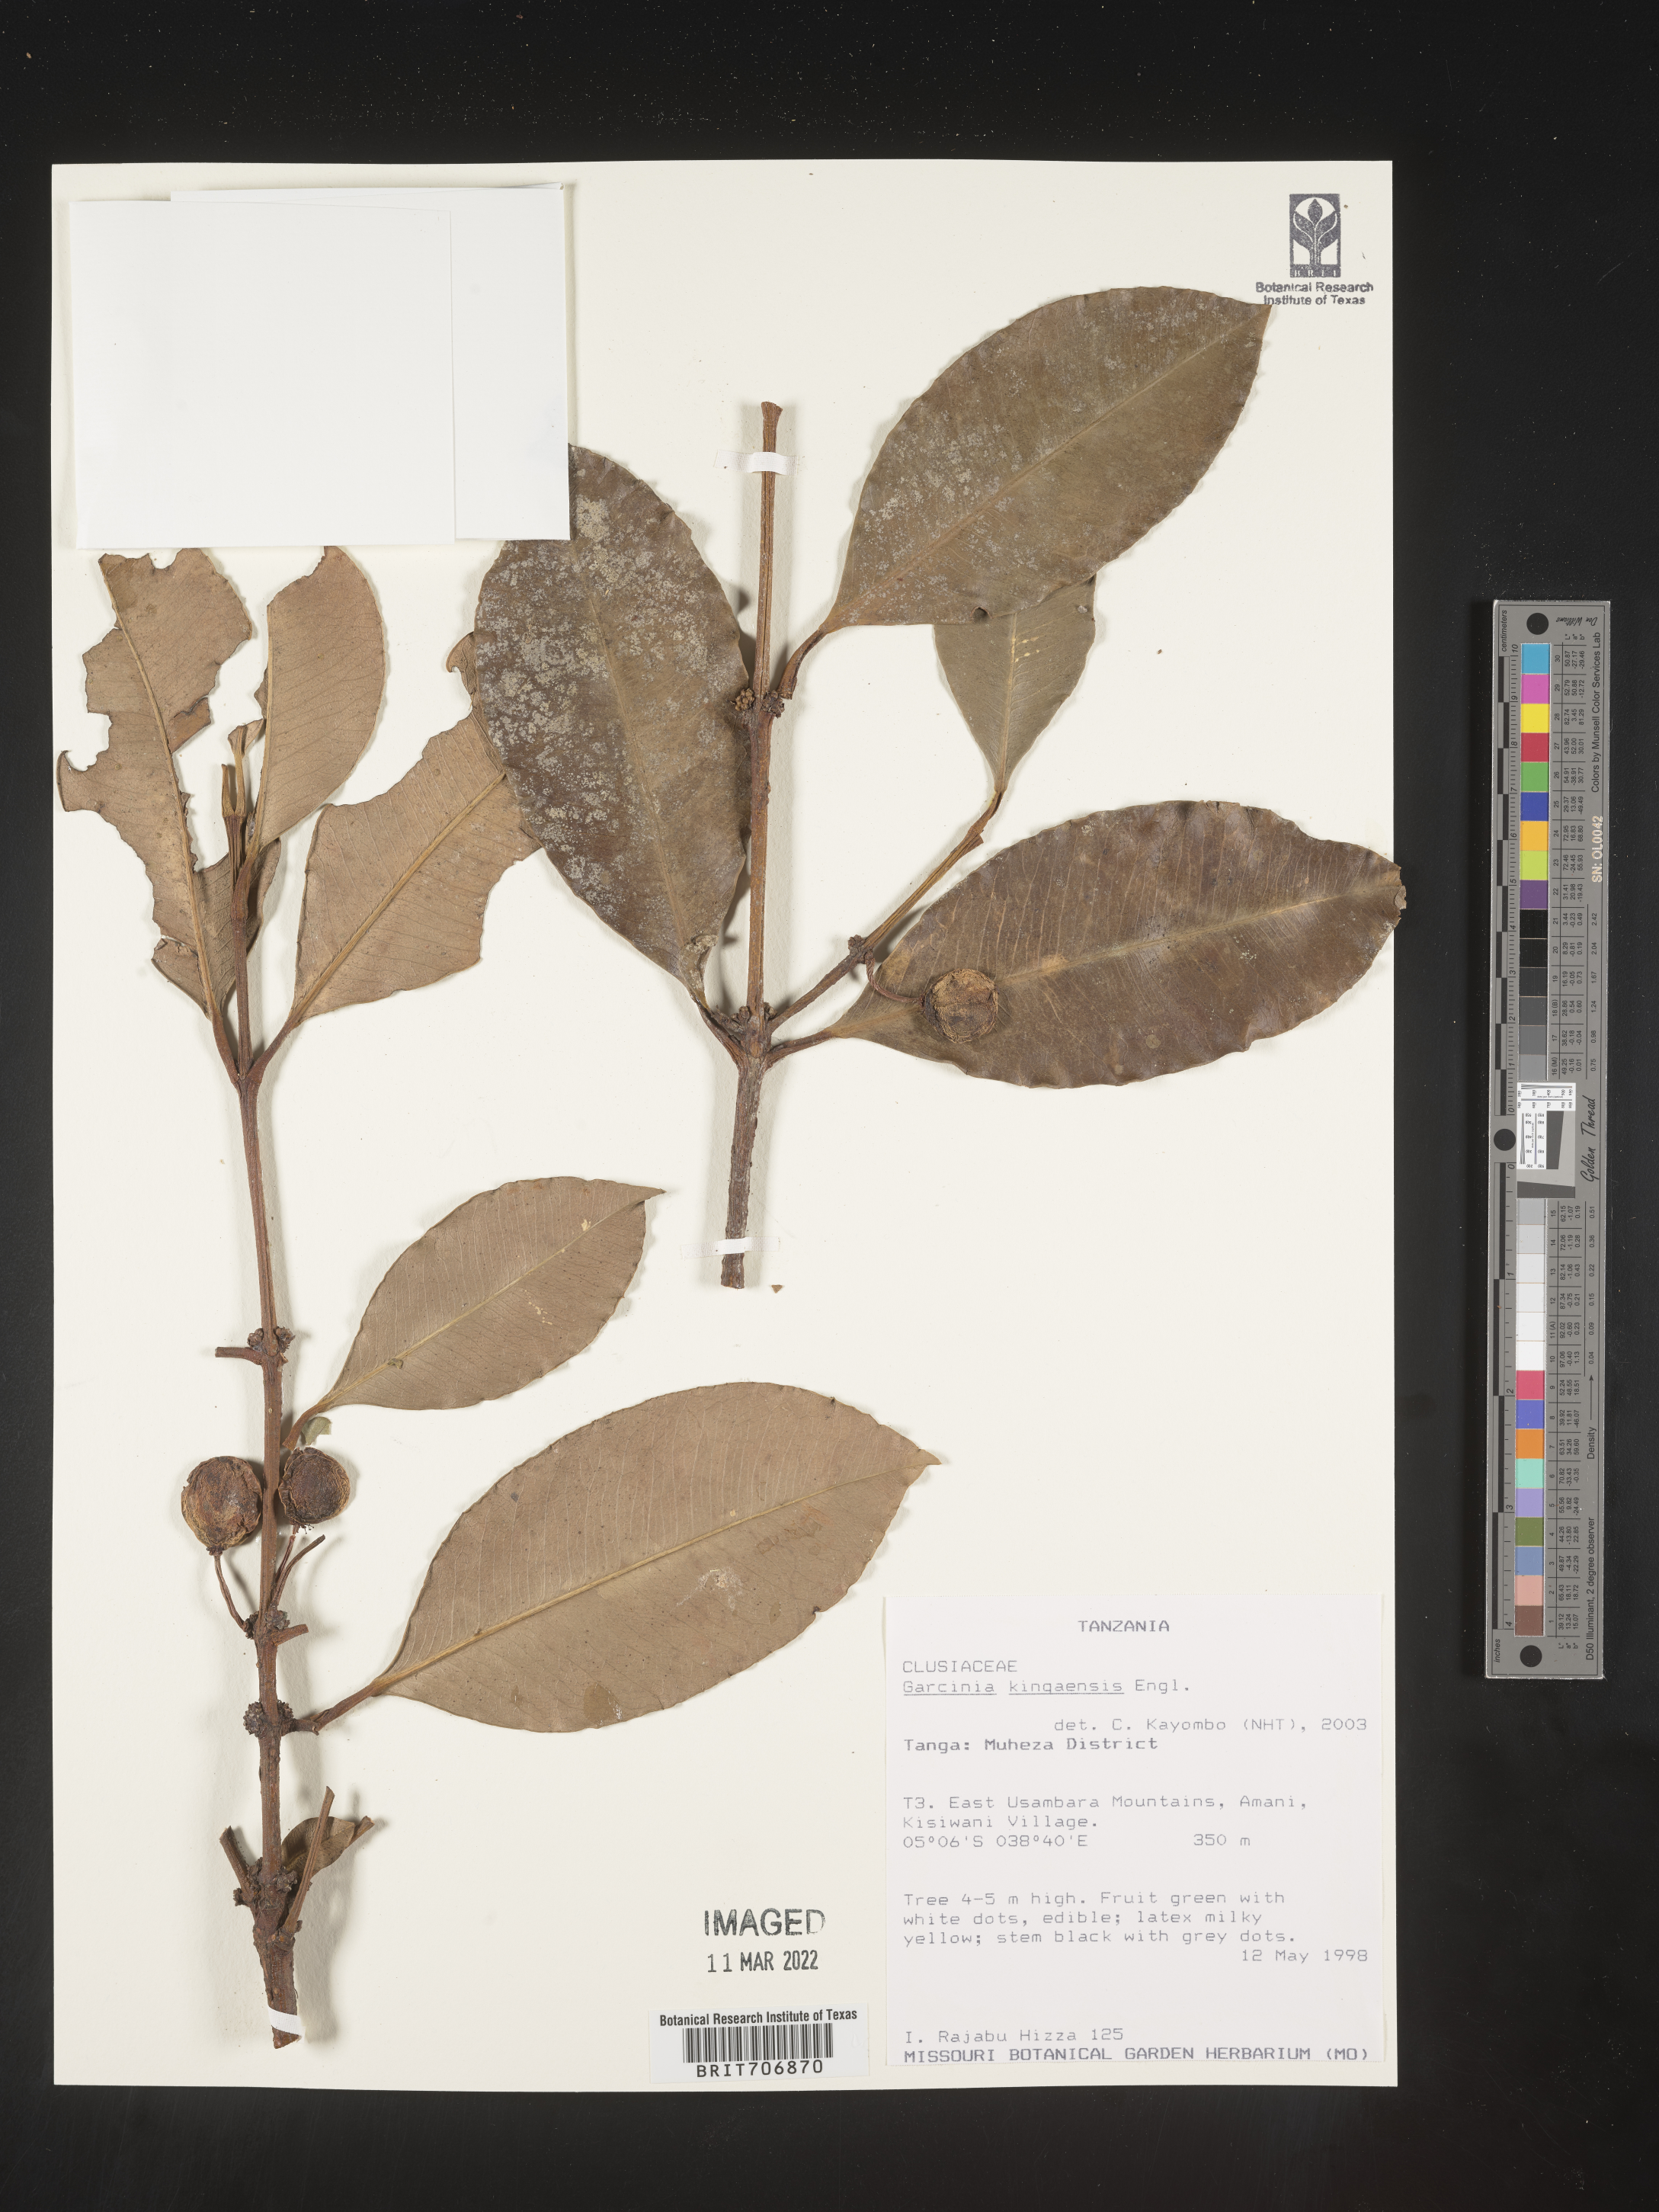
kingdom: Plantae
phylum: Tracheophyta
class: Magnoliopsida
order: Malpighiales
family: Clusiaceae
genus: Garcinia
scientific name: Garcinia
